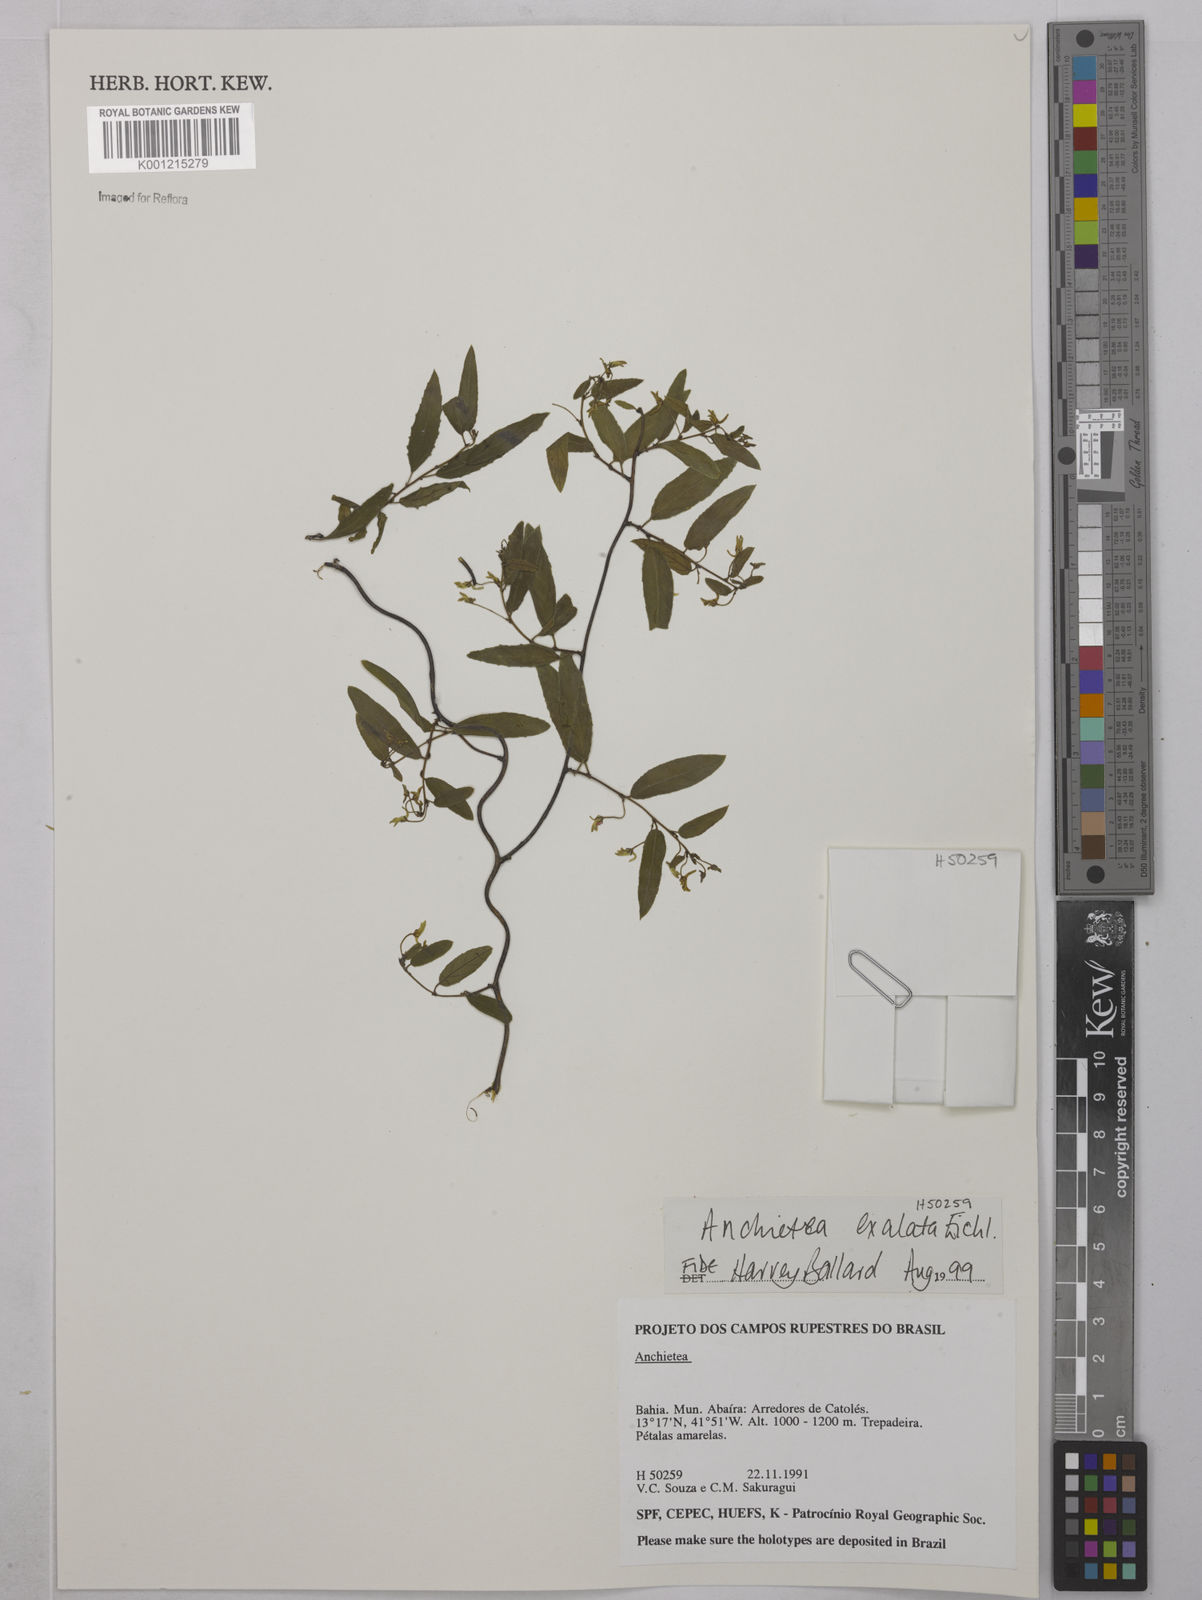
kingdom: Plantae
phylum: Tracheophyta
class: Magnoliopsida
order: Malpighiales
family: Violaceae
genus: Anchietea
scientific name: Anchietea exaltata
